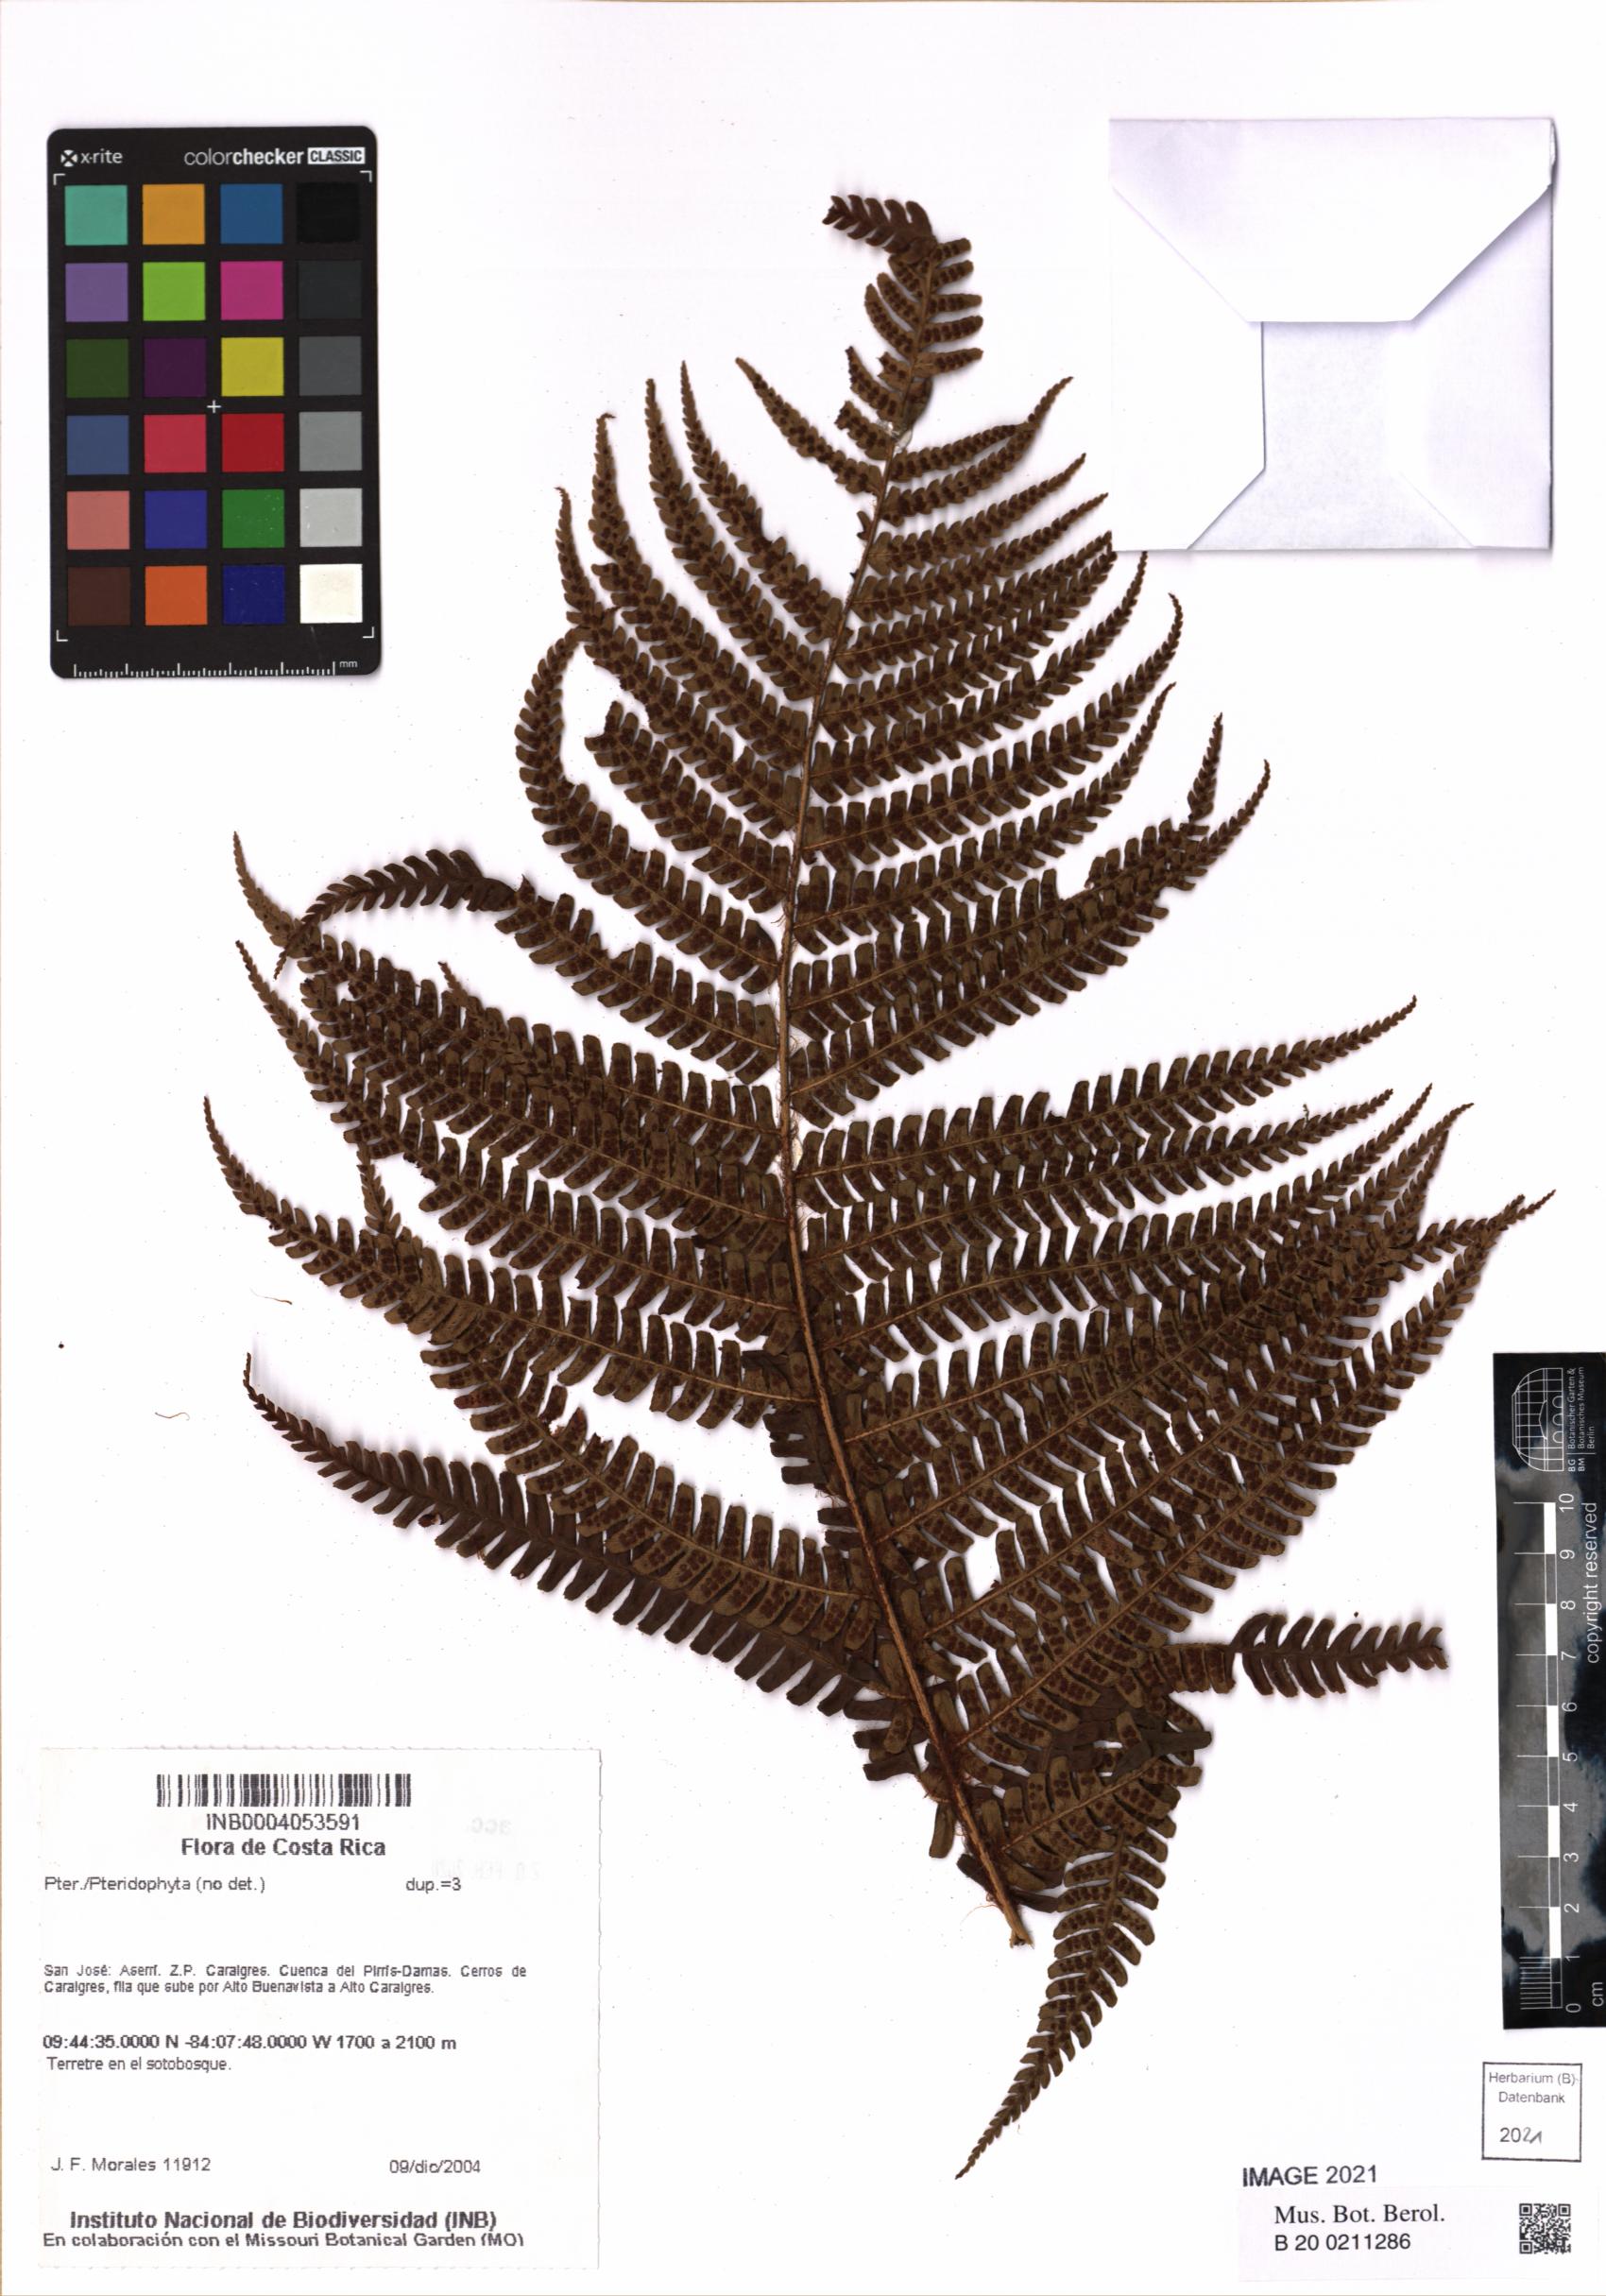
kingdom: Plantae
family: Pteridophyta
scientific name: Pteridophyta
